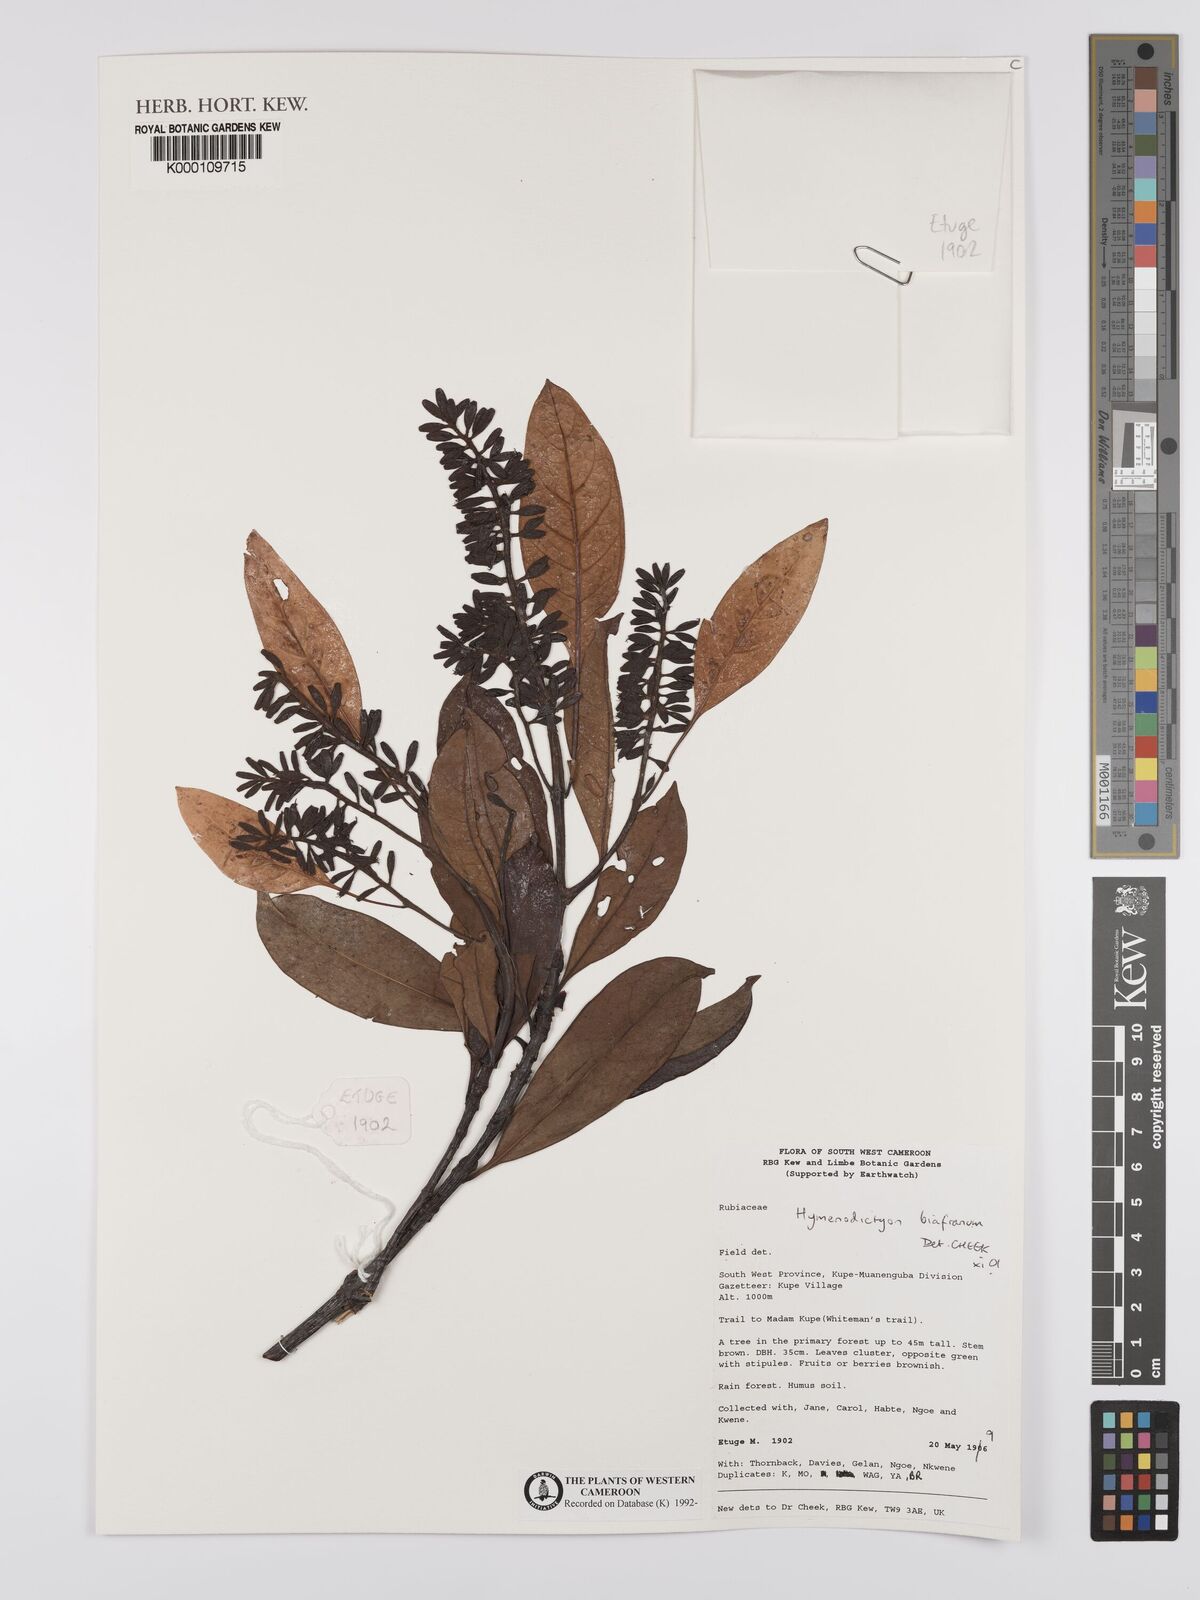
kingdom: Plantae
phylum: Tracheophyta
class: Magnoliopsida
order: Gentianales
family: Rubiaceae
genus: Hymenodictyon
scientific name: Hymenodictyon biafranum
